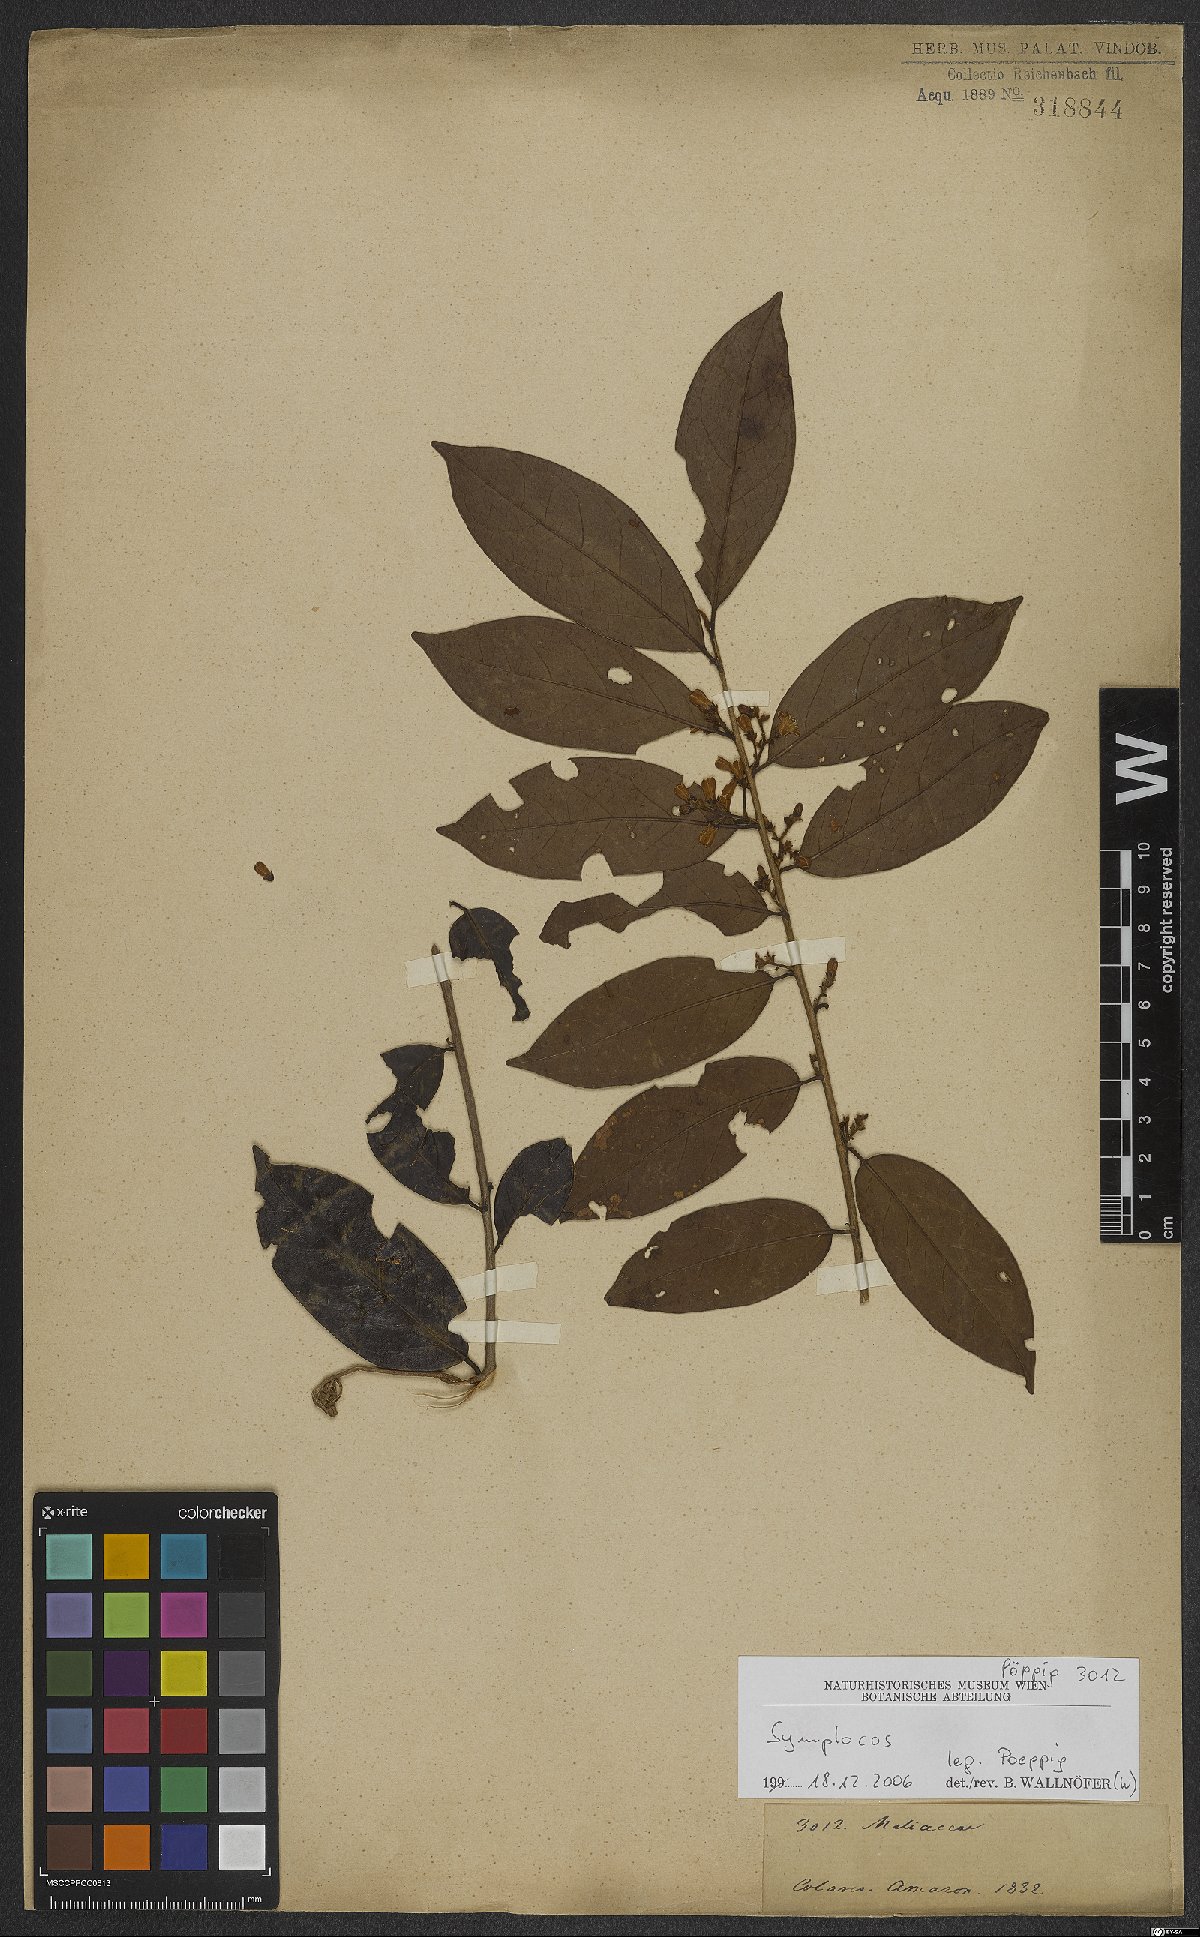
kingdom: Plantae
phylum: Tracheophyta
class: Magnoliopsida
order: Ericales
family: Symplocaceae
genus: Symplocos
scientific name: Symplocos
